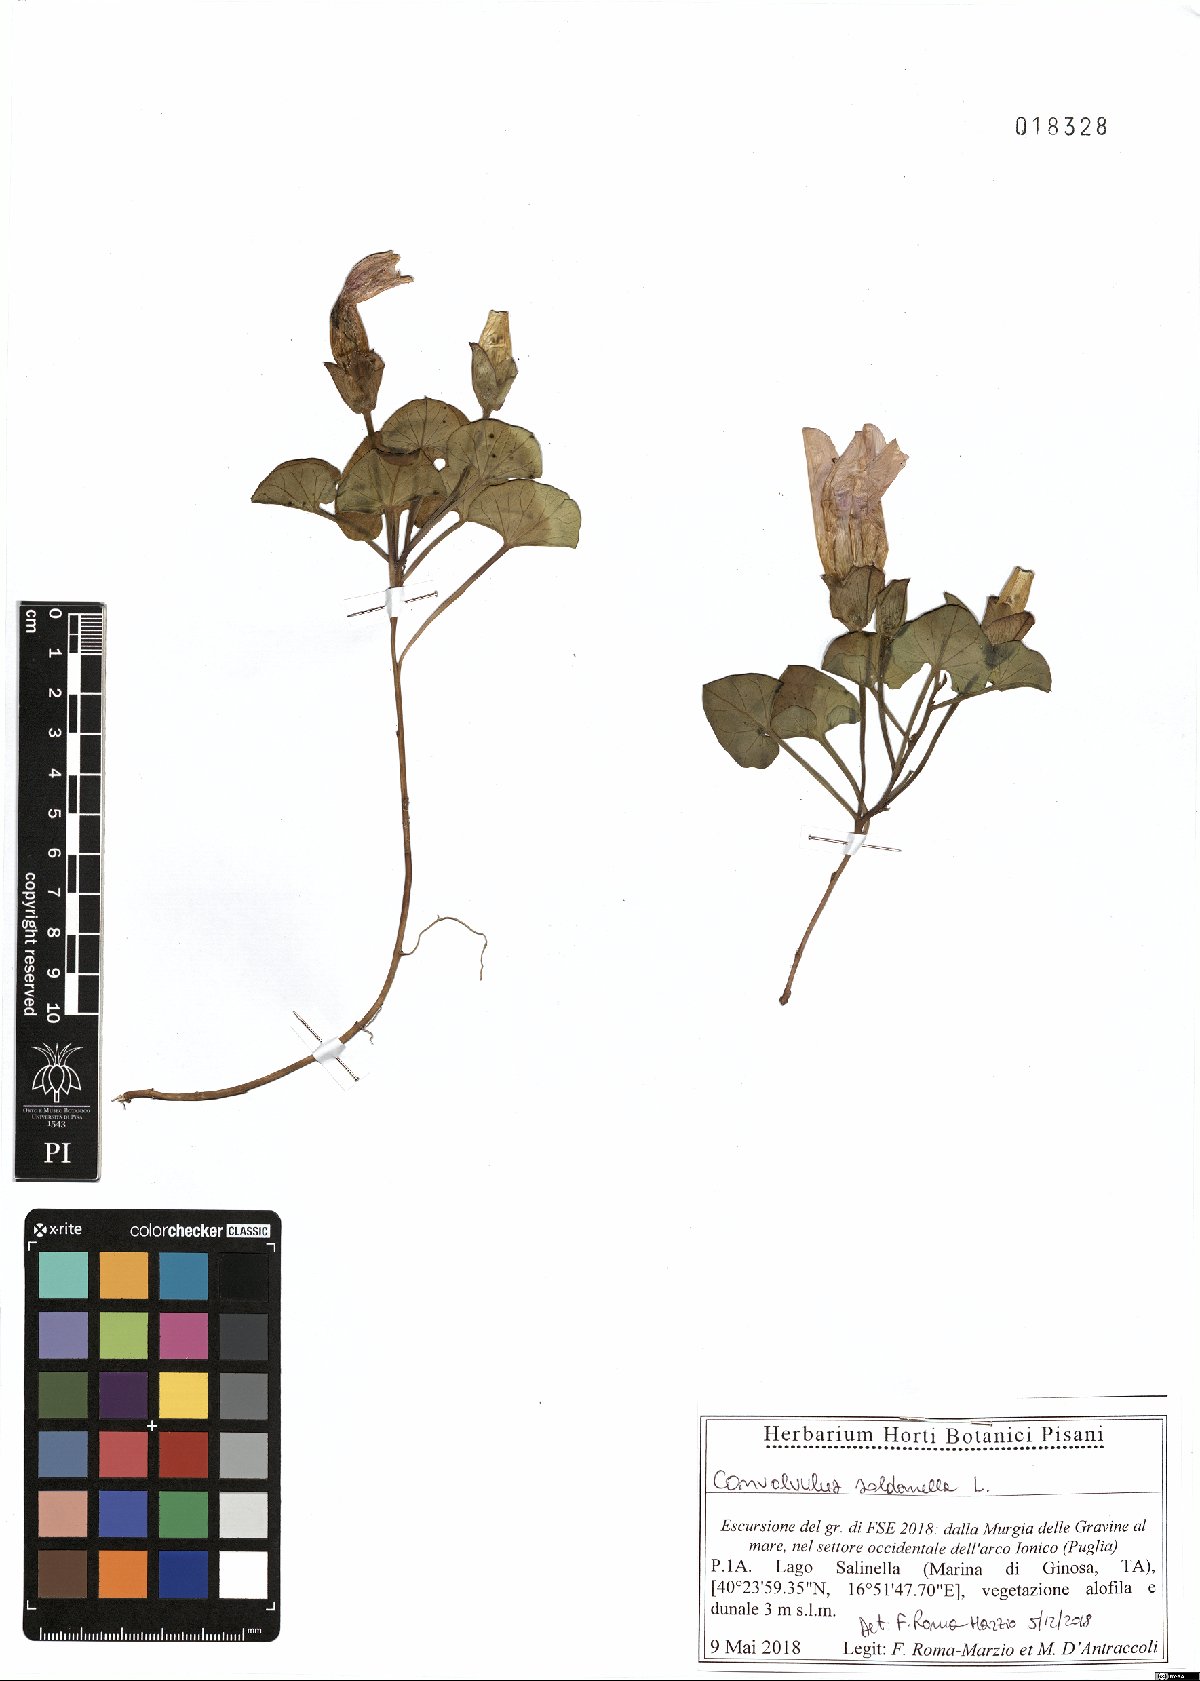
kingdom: Plantae
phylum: Tracheophyta
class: Magnoliopsida
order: Solanales
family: Convolvulaceae
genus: Calystegia
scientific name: Calystegia soldanella
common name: Sea bindweed
